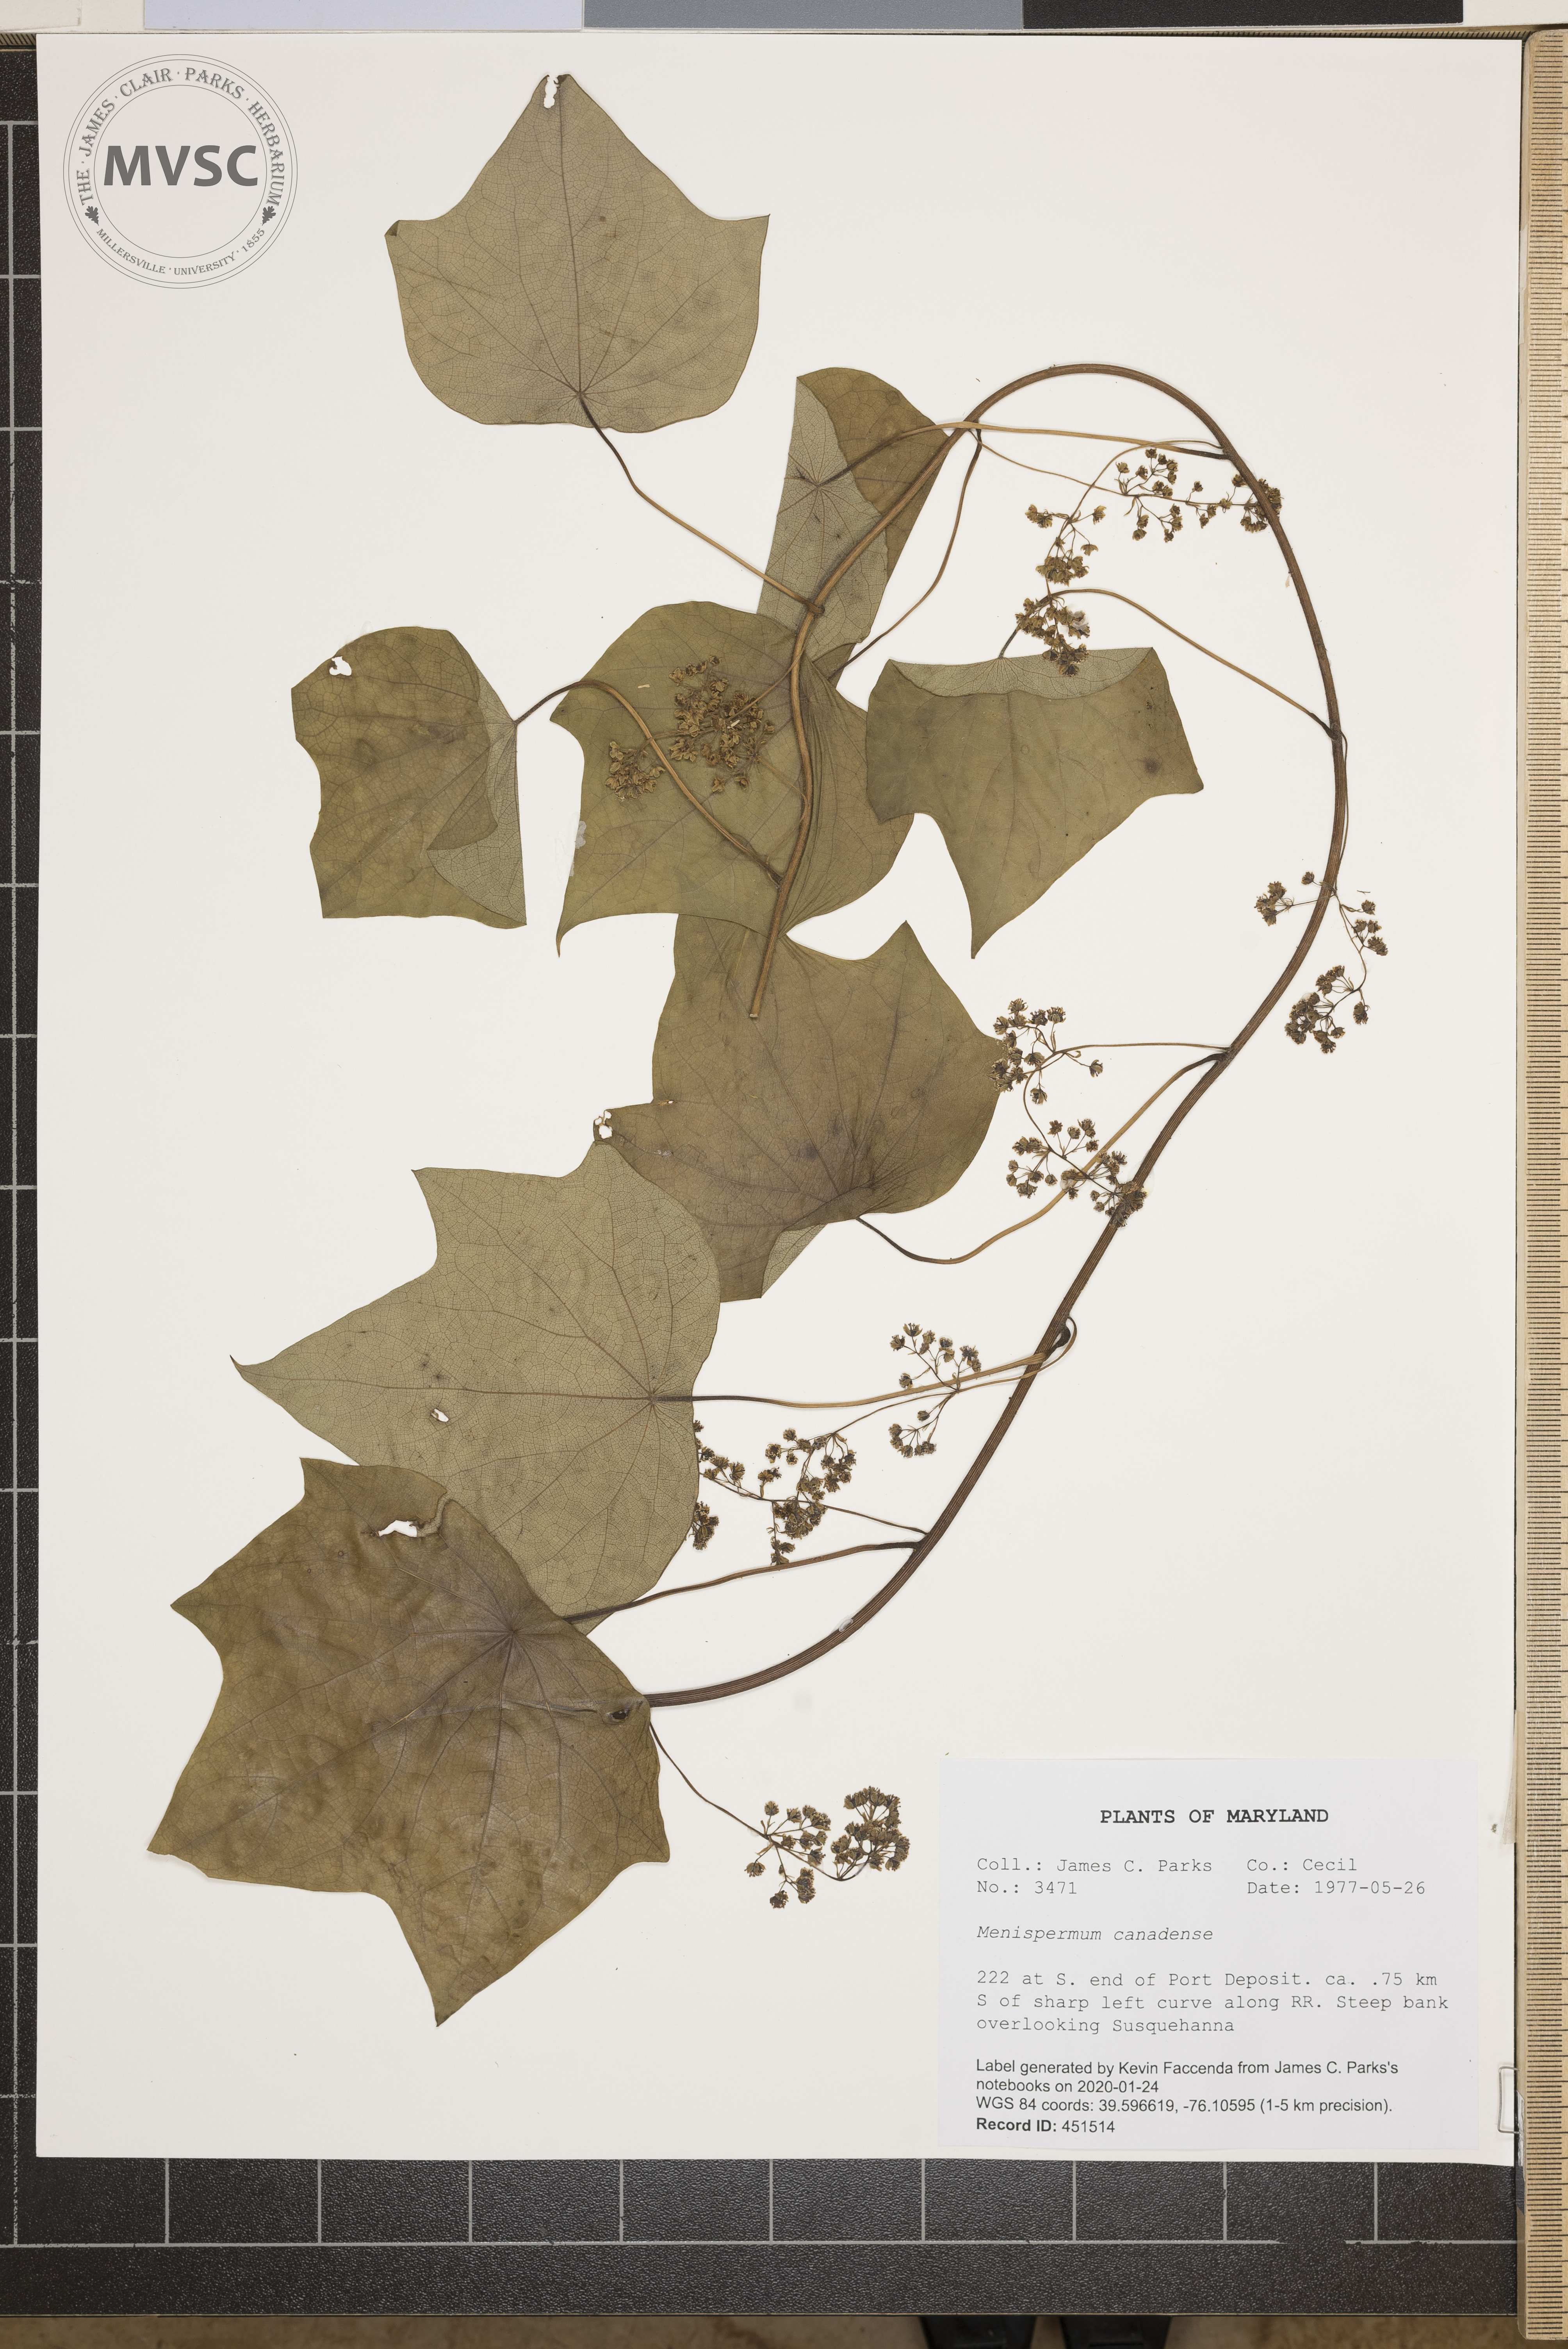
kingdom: Plantae
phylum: Tracheophyta
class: Magnoliopsida
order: Ranunculales
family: Menispermaceae
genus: Menispermum
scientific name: Menispermum canadense
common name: Moonseed
